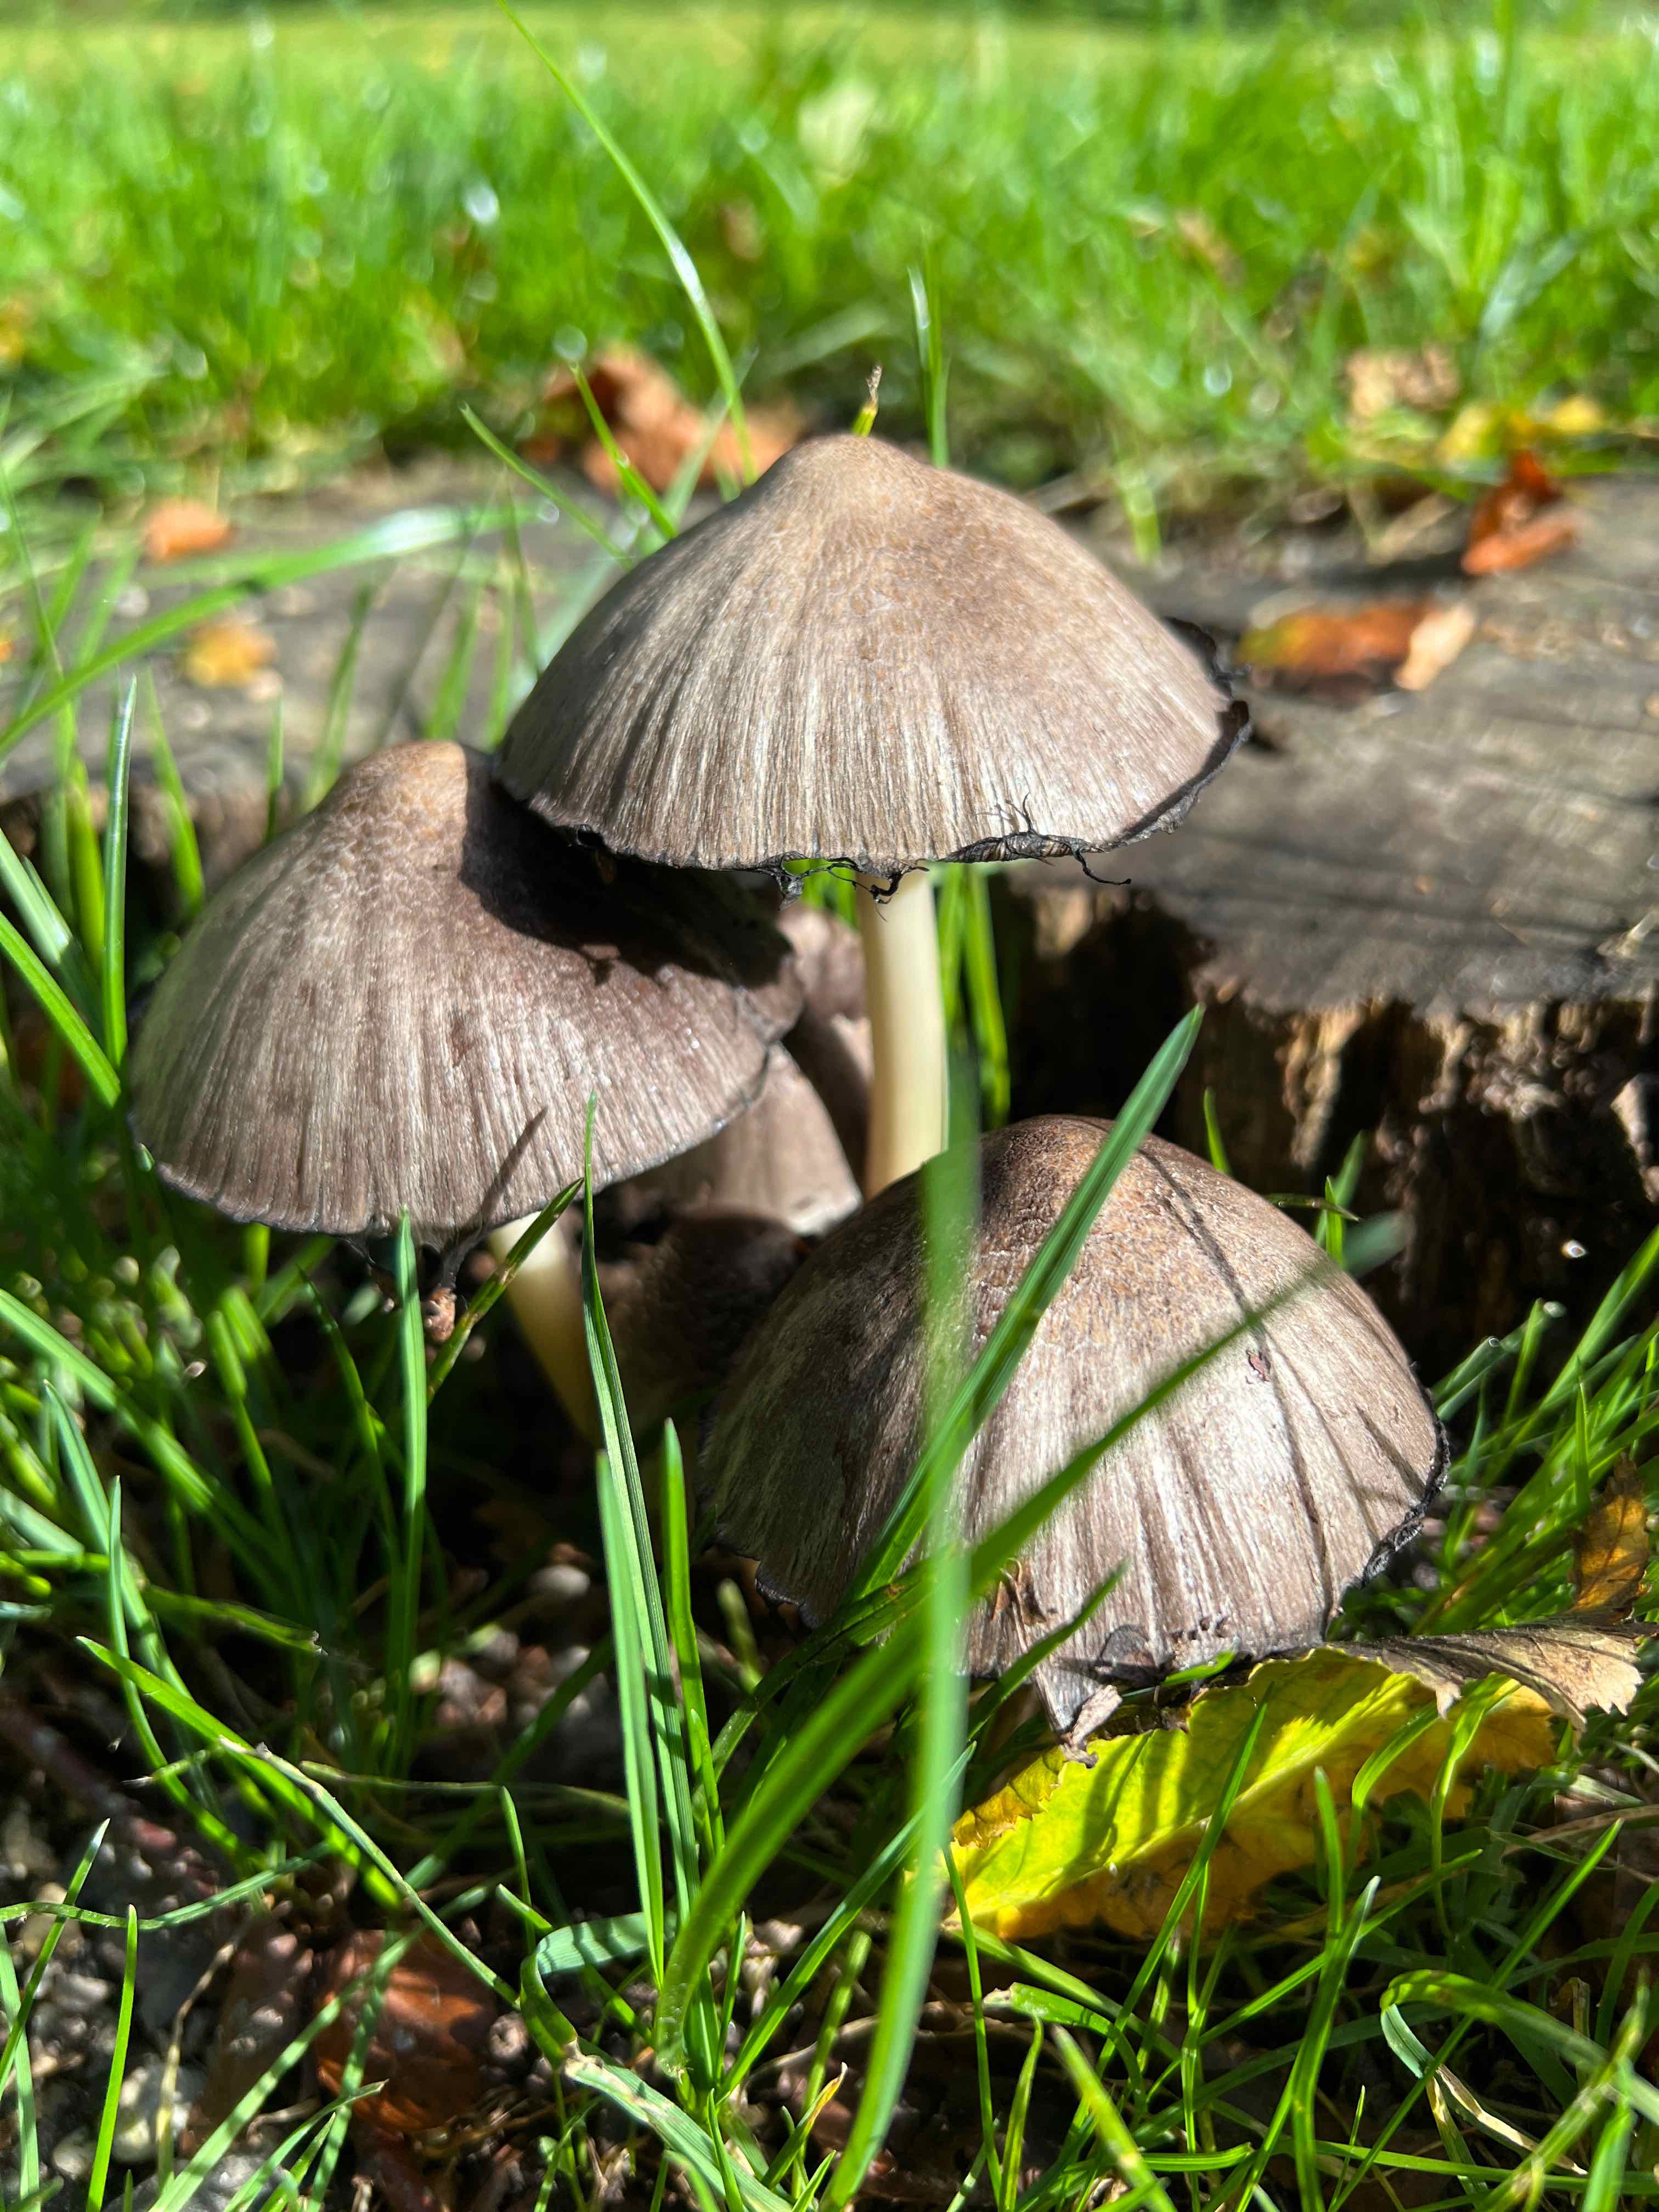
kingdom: Fungi
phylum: Basidiomycota
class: Agaricomycetes
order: Agaricales
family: Psathyrellaceae
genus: Coprinopsis
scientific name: Coprinopsis atramentaria
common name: almindelig blækhat
